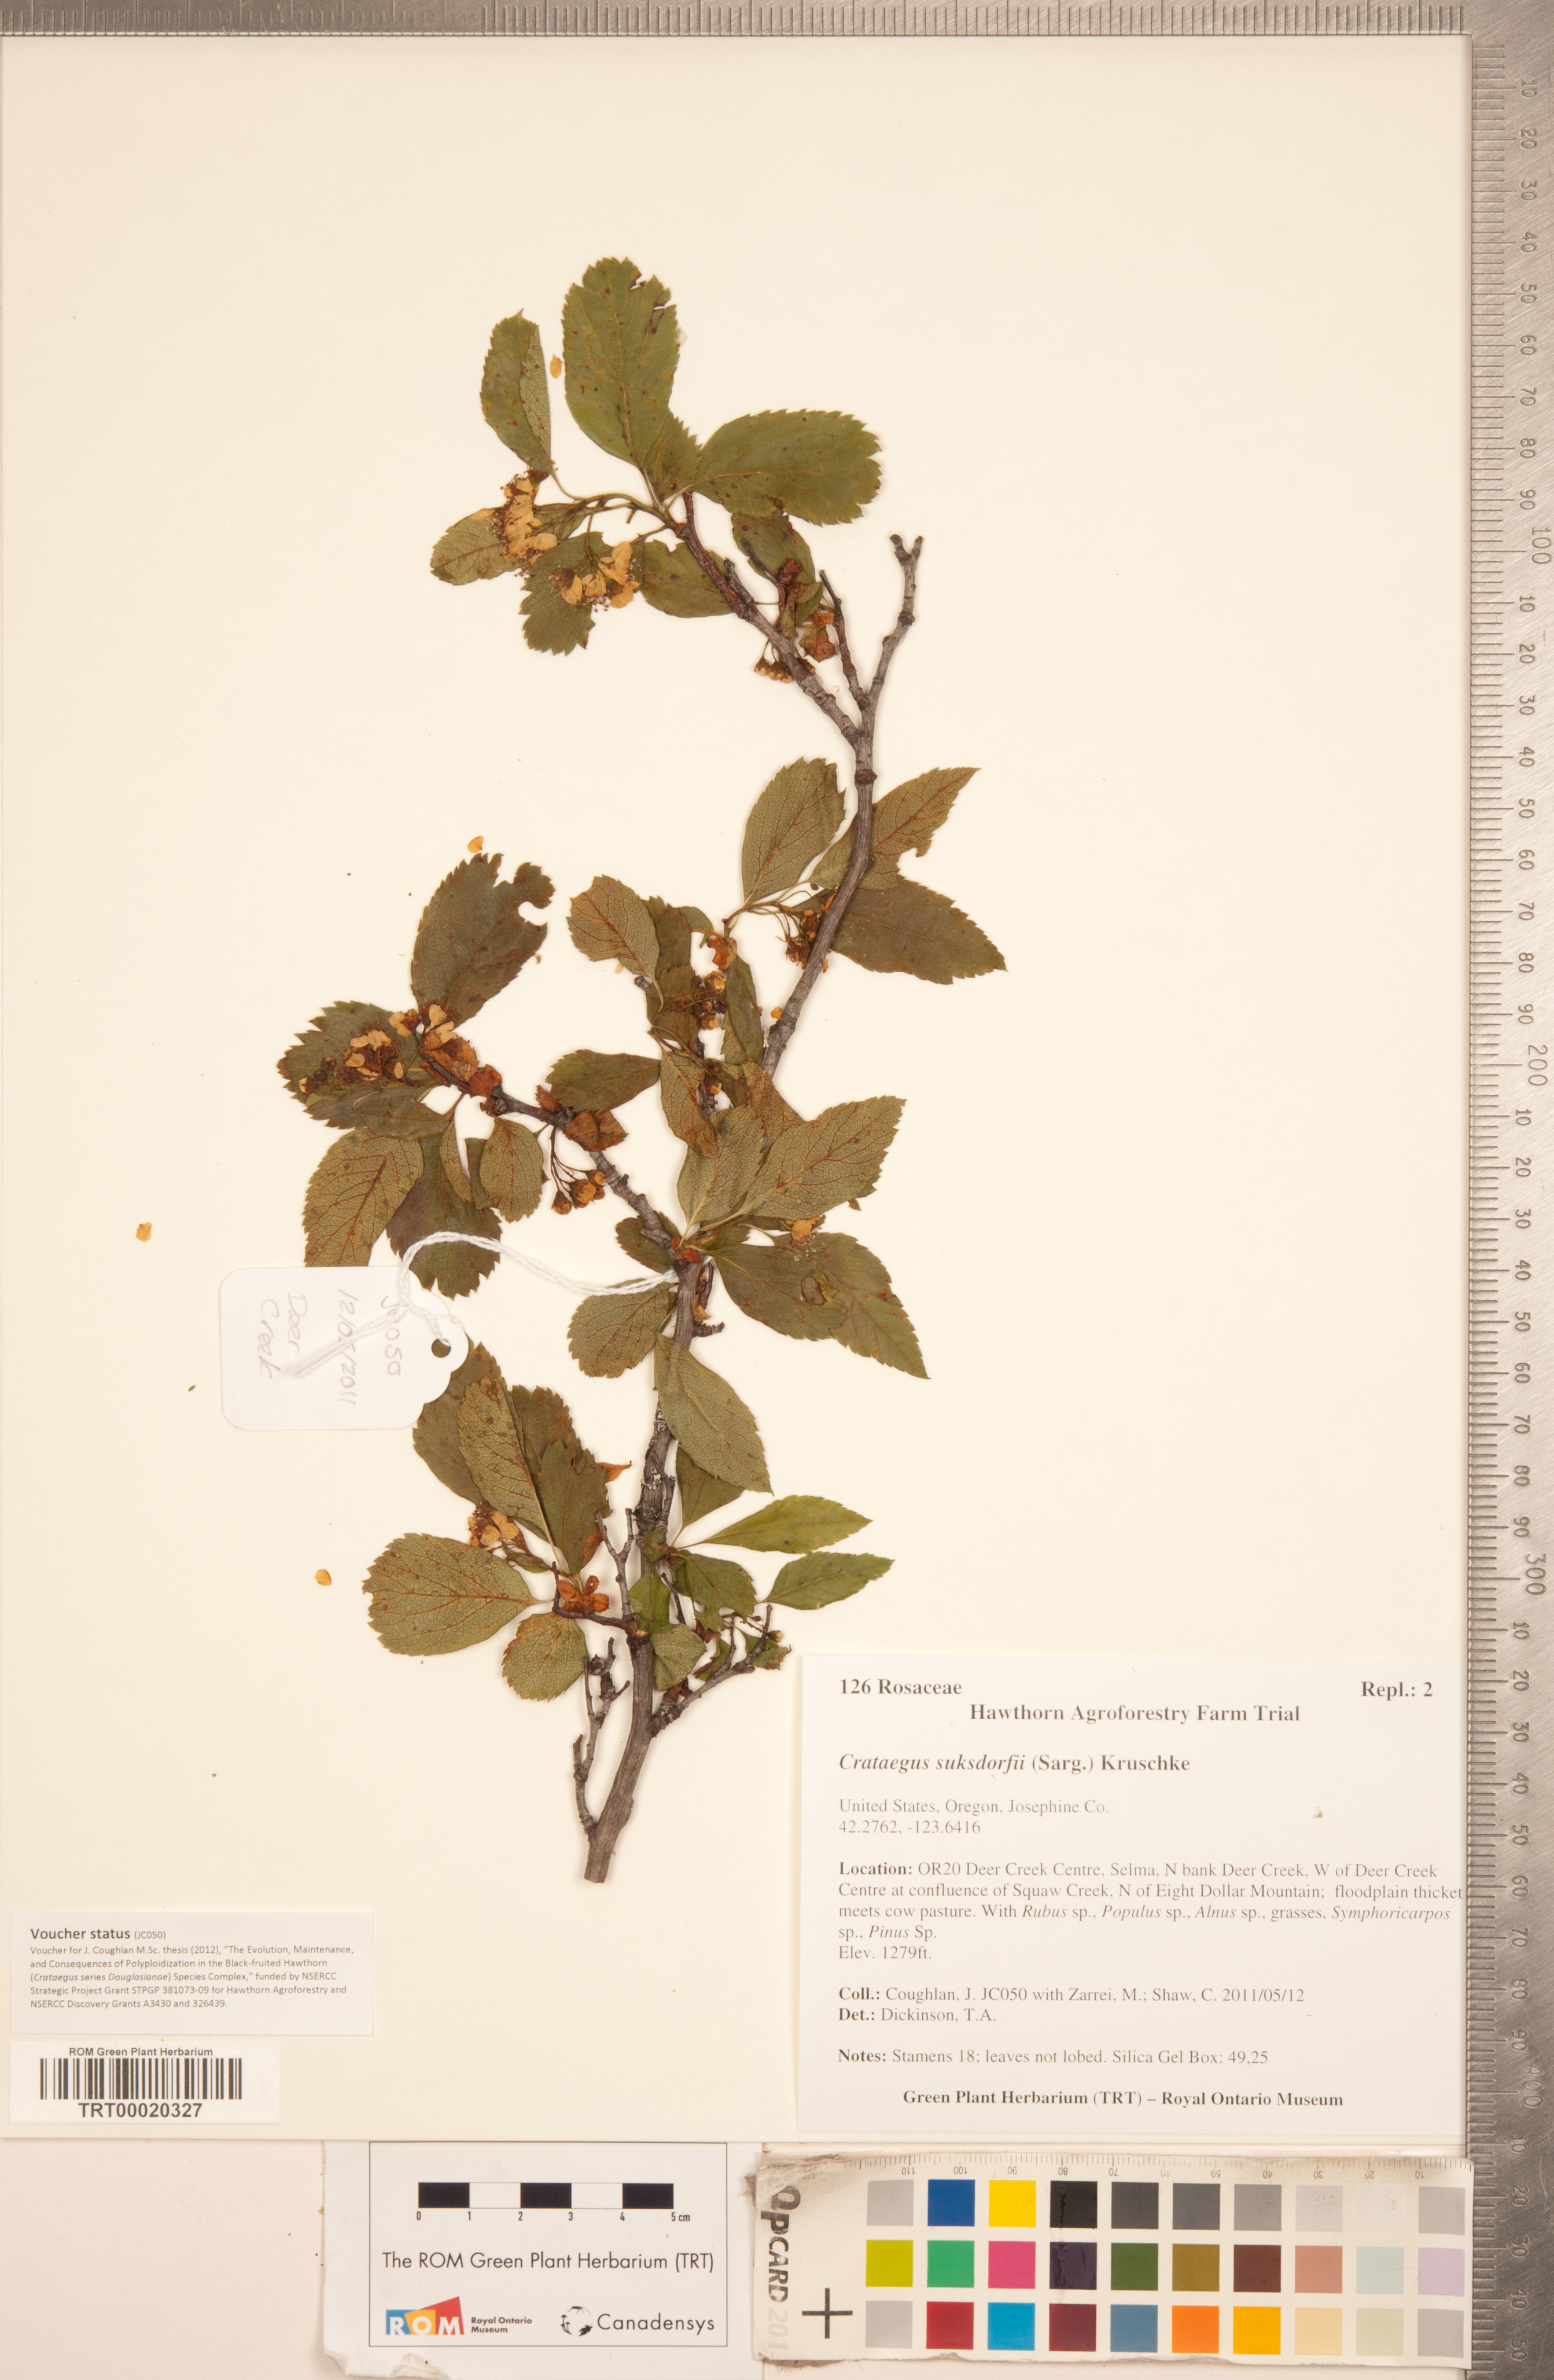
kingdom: Plantae
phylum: Tracheophyta
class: Magnoliopsida
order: Rosales
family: Rosaceae
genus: Crataegus
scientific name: Crataegus gaylussacia
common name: Huckleberry hawthorn
